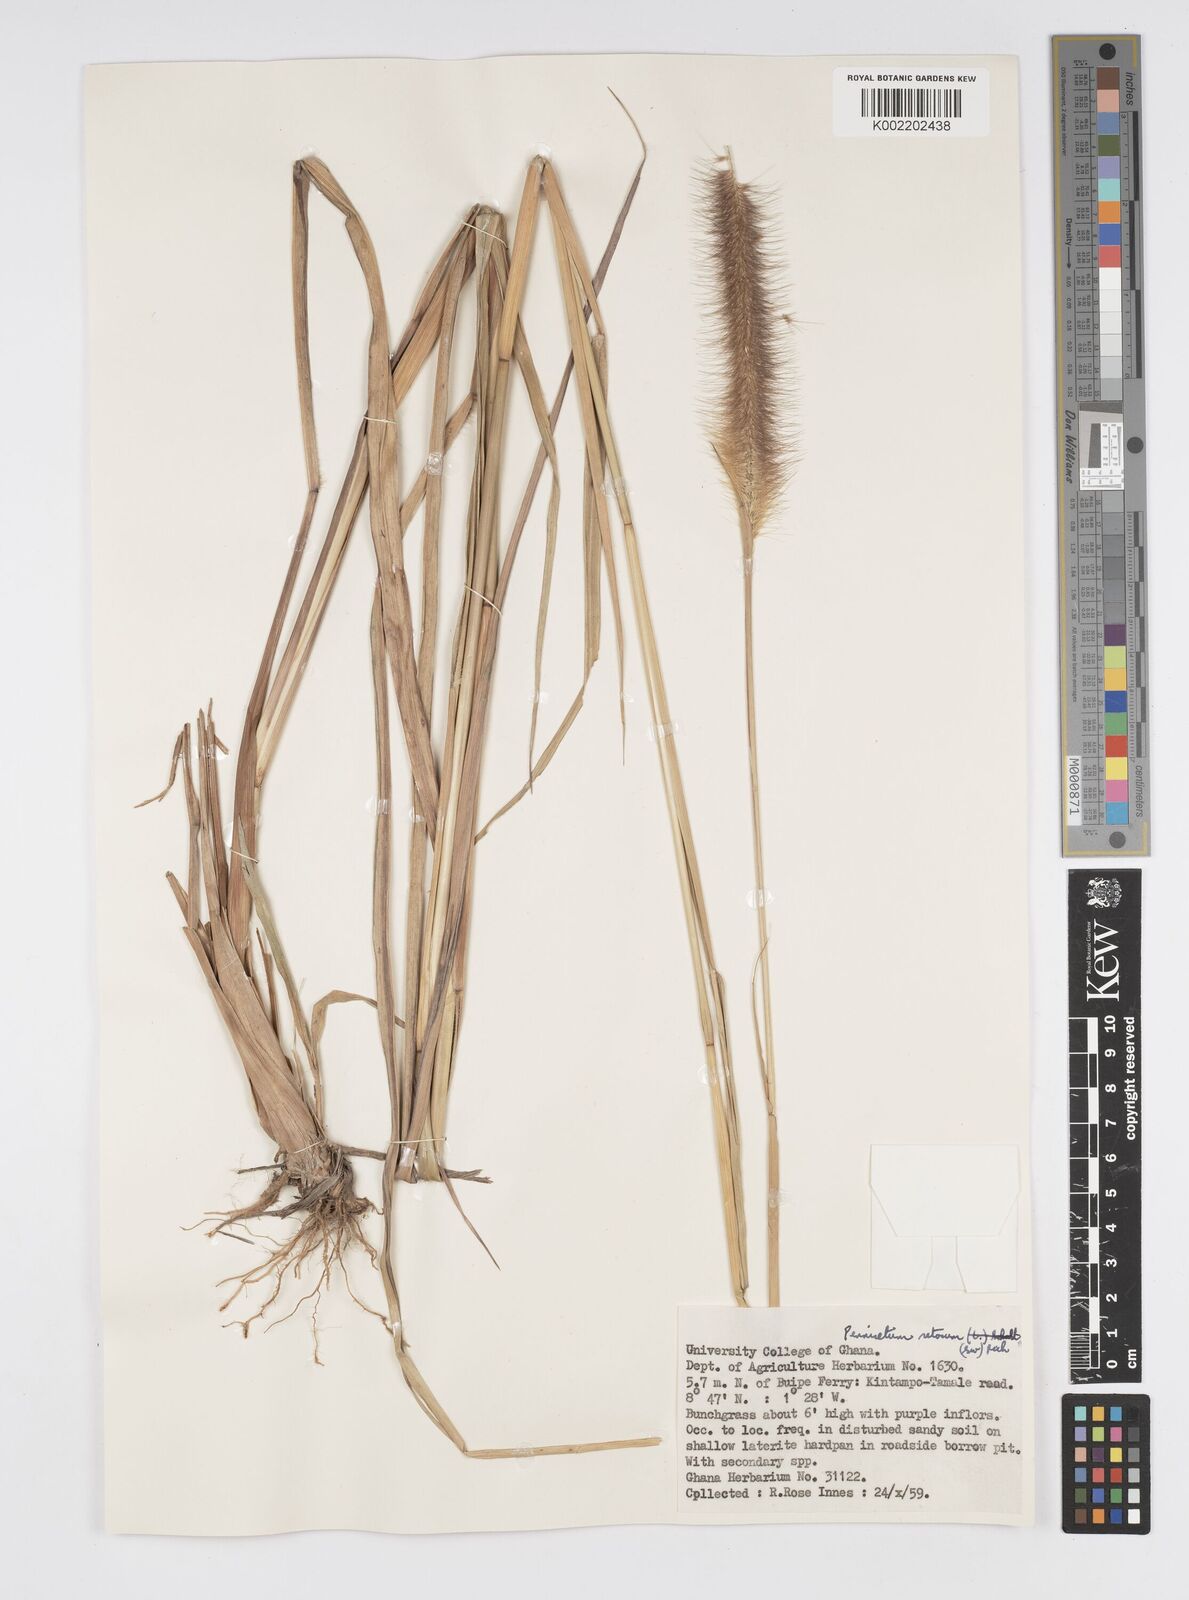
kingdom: Plantae
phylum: Tracheophyta
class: Liliopsida
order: Poales
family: Poaceae
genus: Setaria
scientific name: Setaria parviflora
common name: Knotroot bristle-grass
